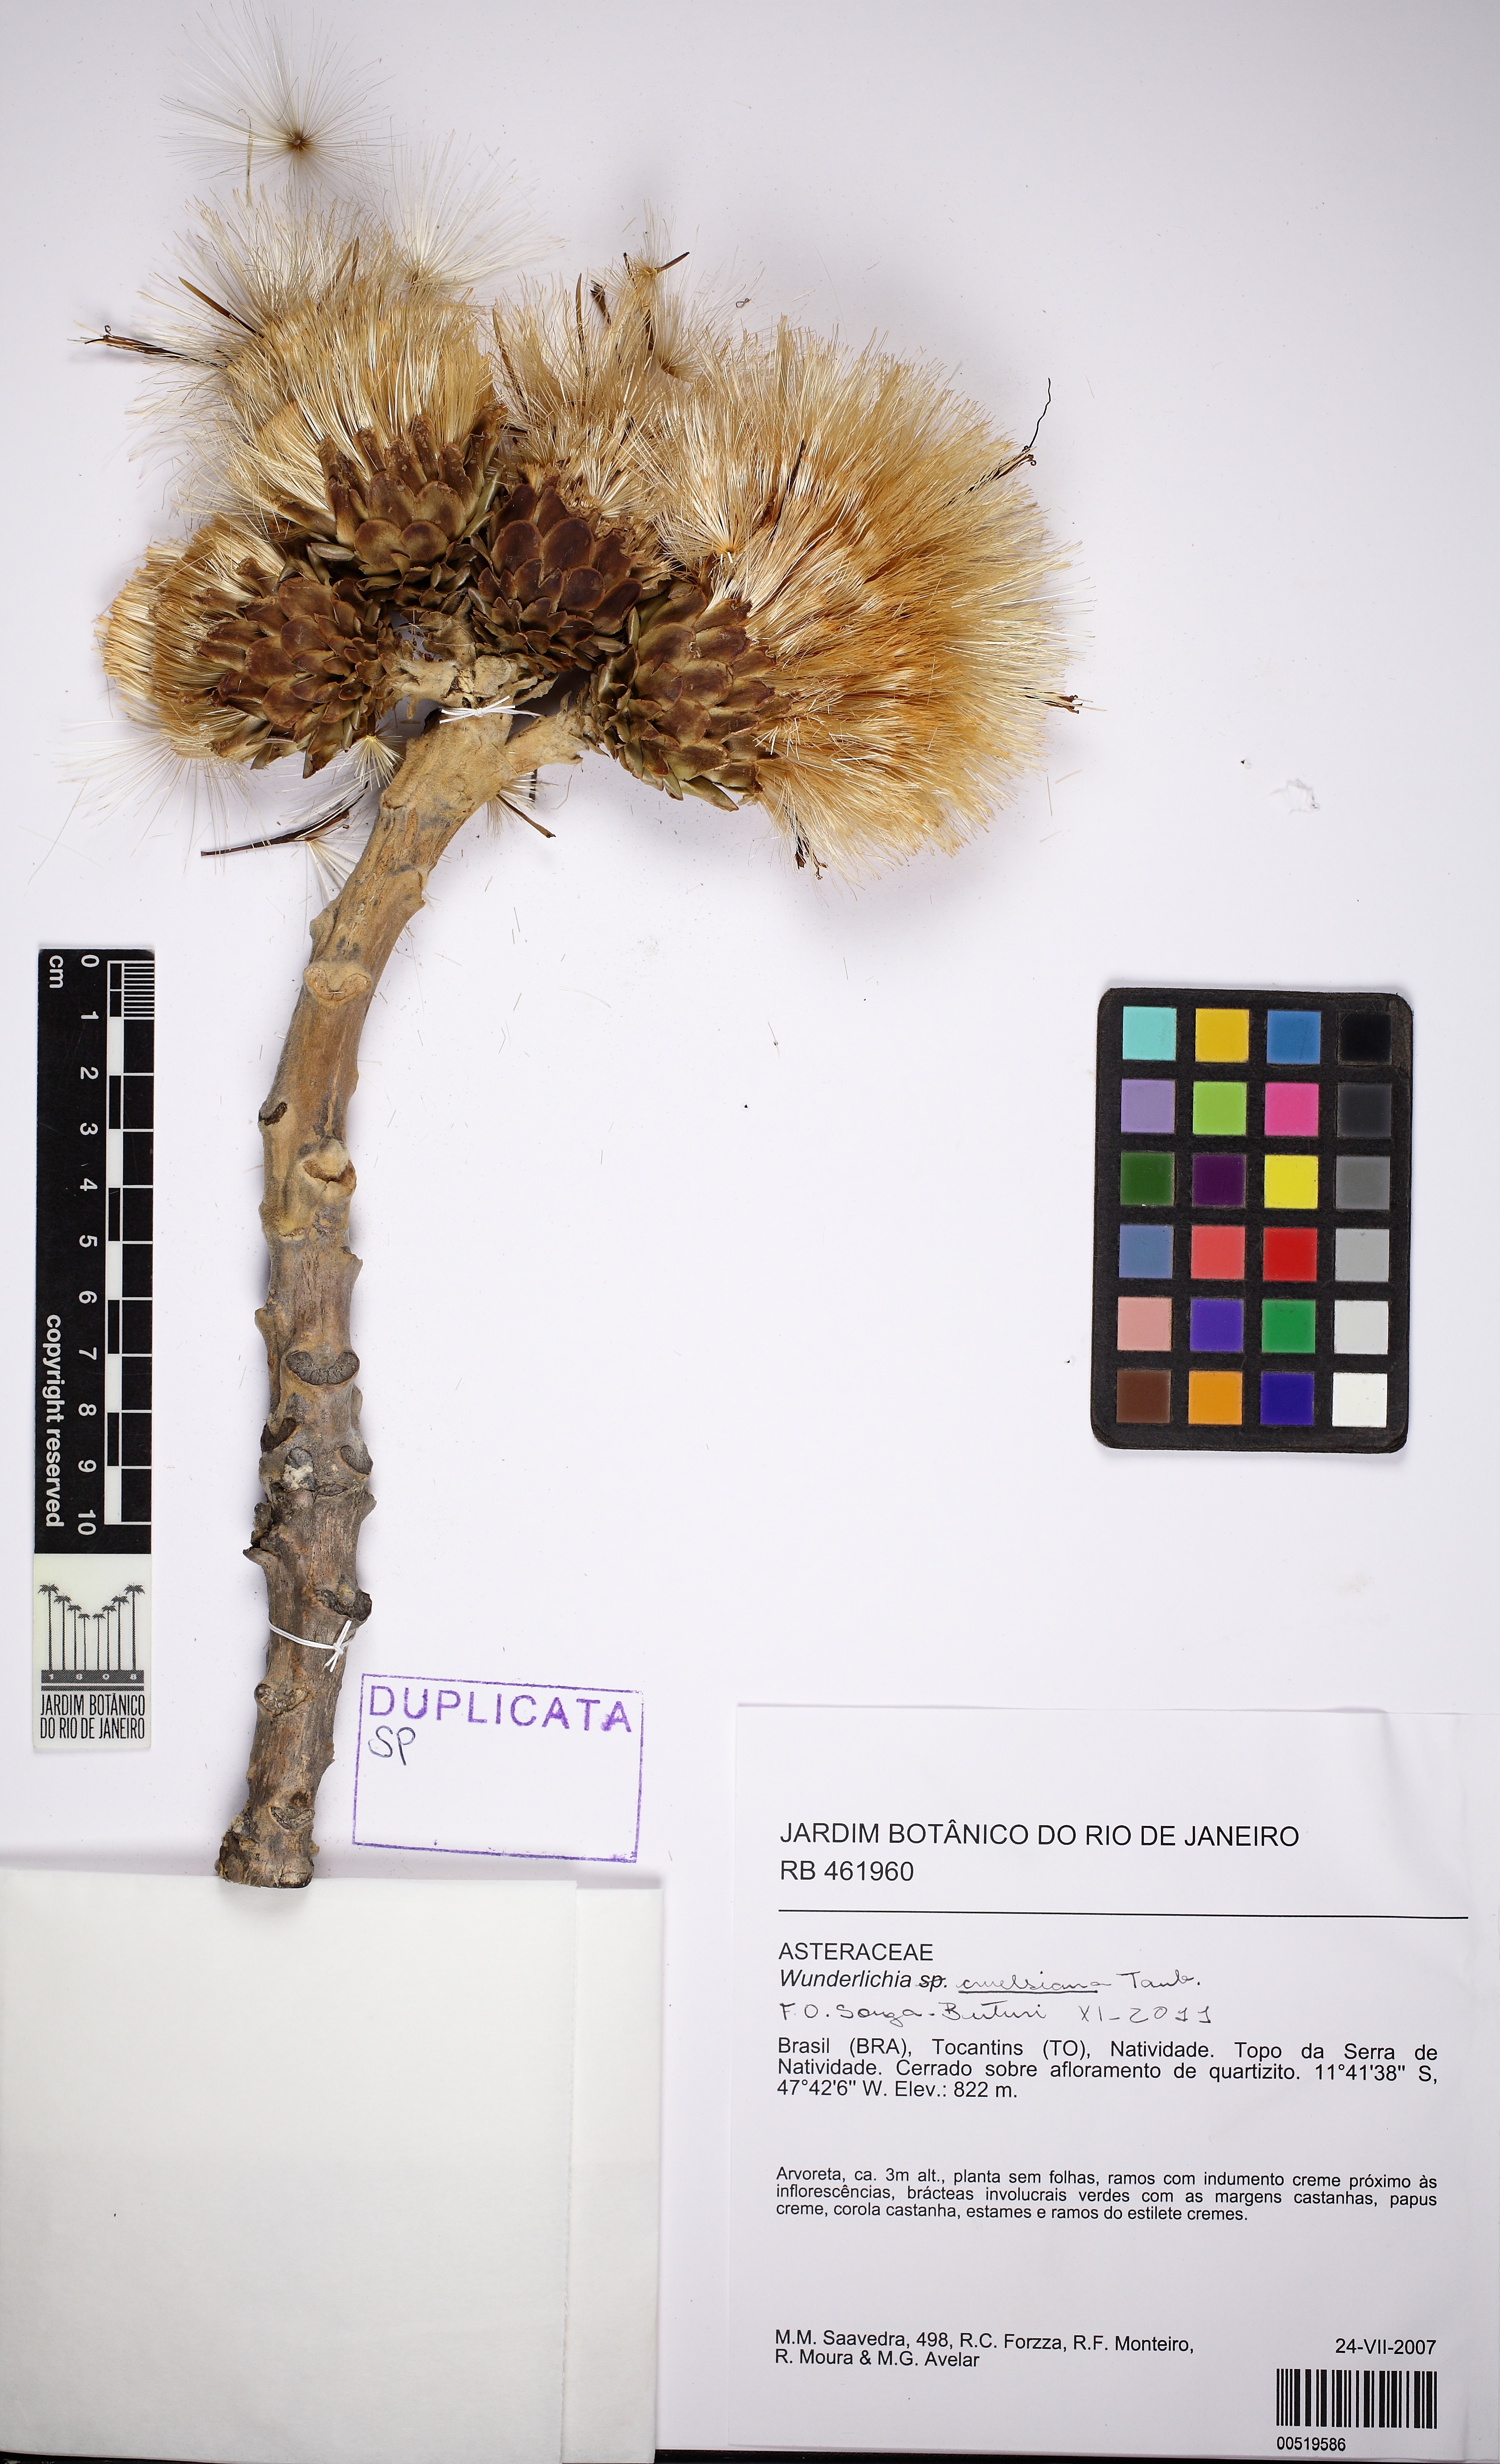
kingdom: Plantae
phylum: Tracheophyta
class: Magnoliopsida
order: Asterales
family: Asteraceae
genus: Wunderlichia
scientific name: Wunderlichia cruelsiana
